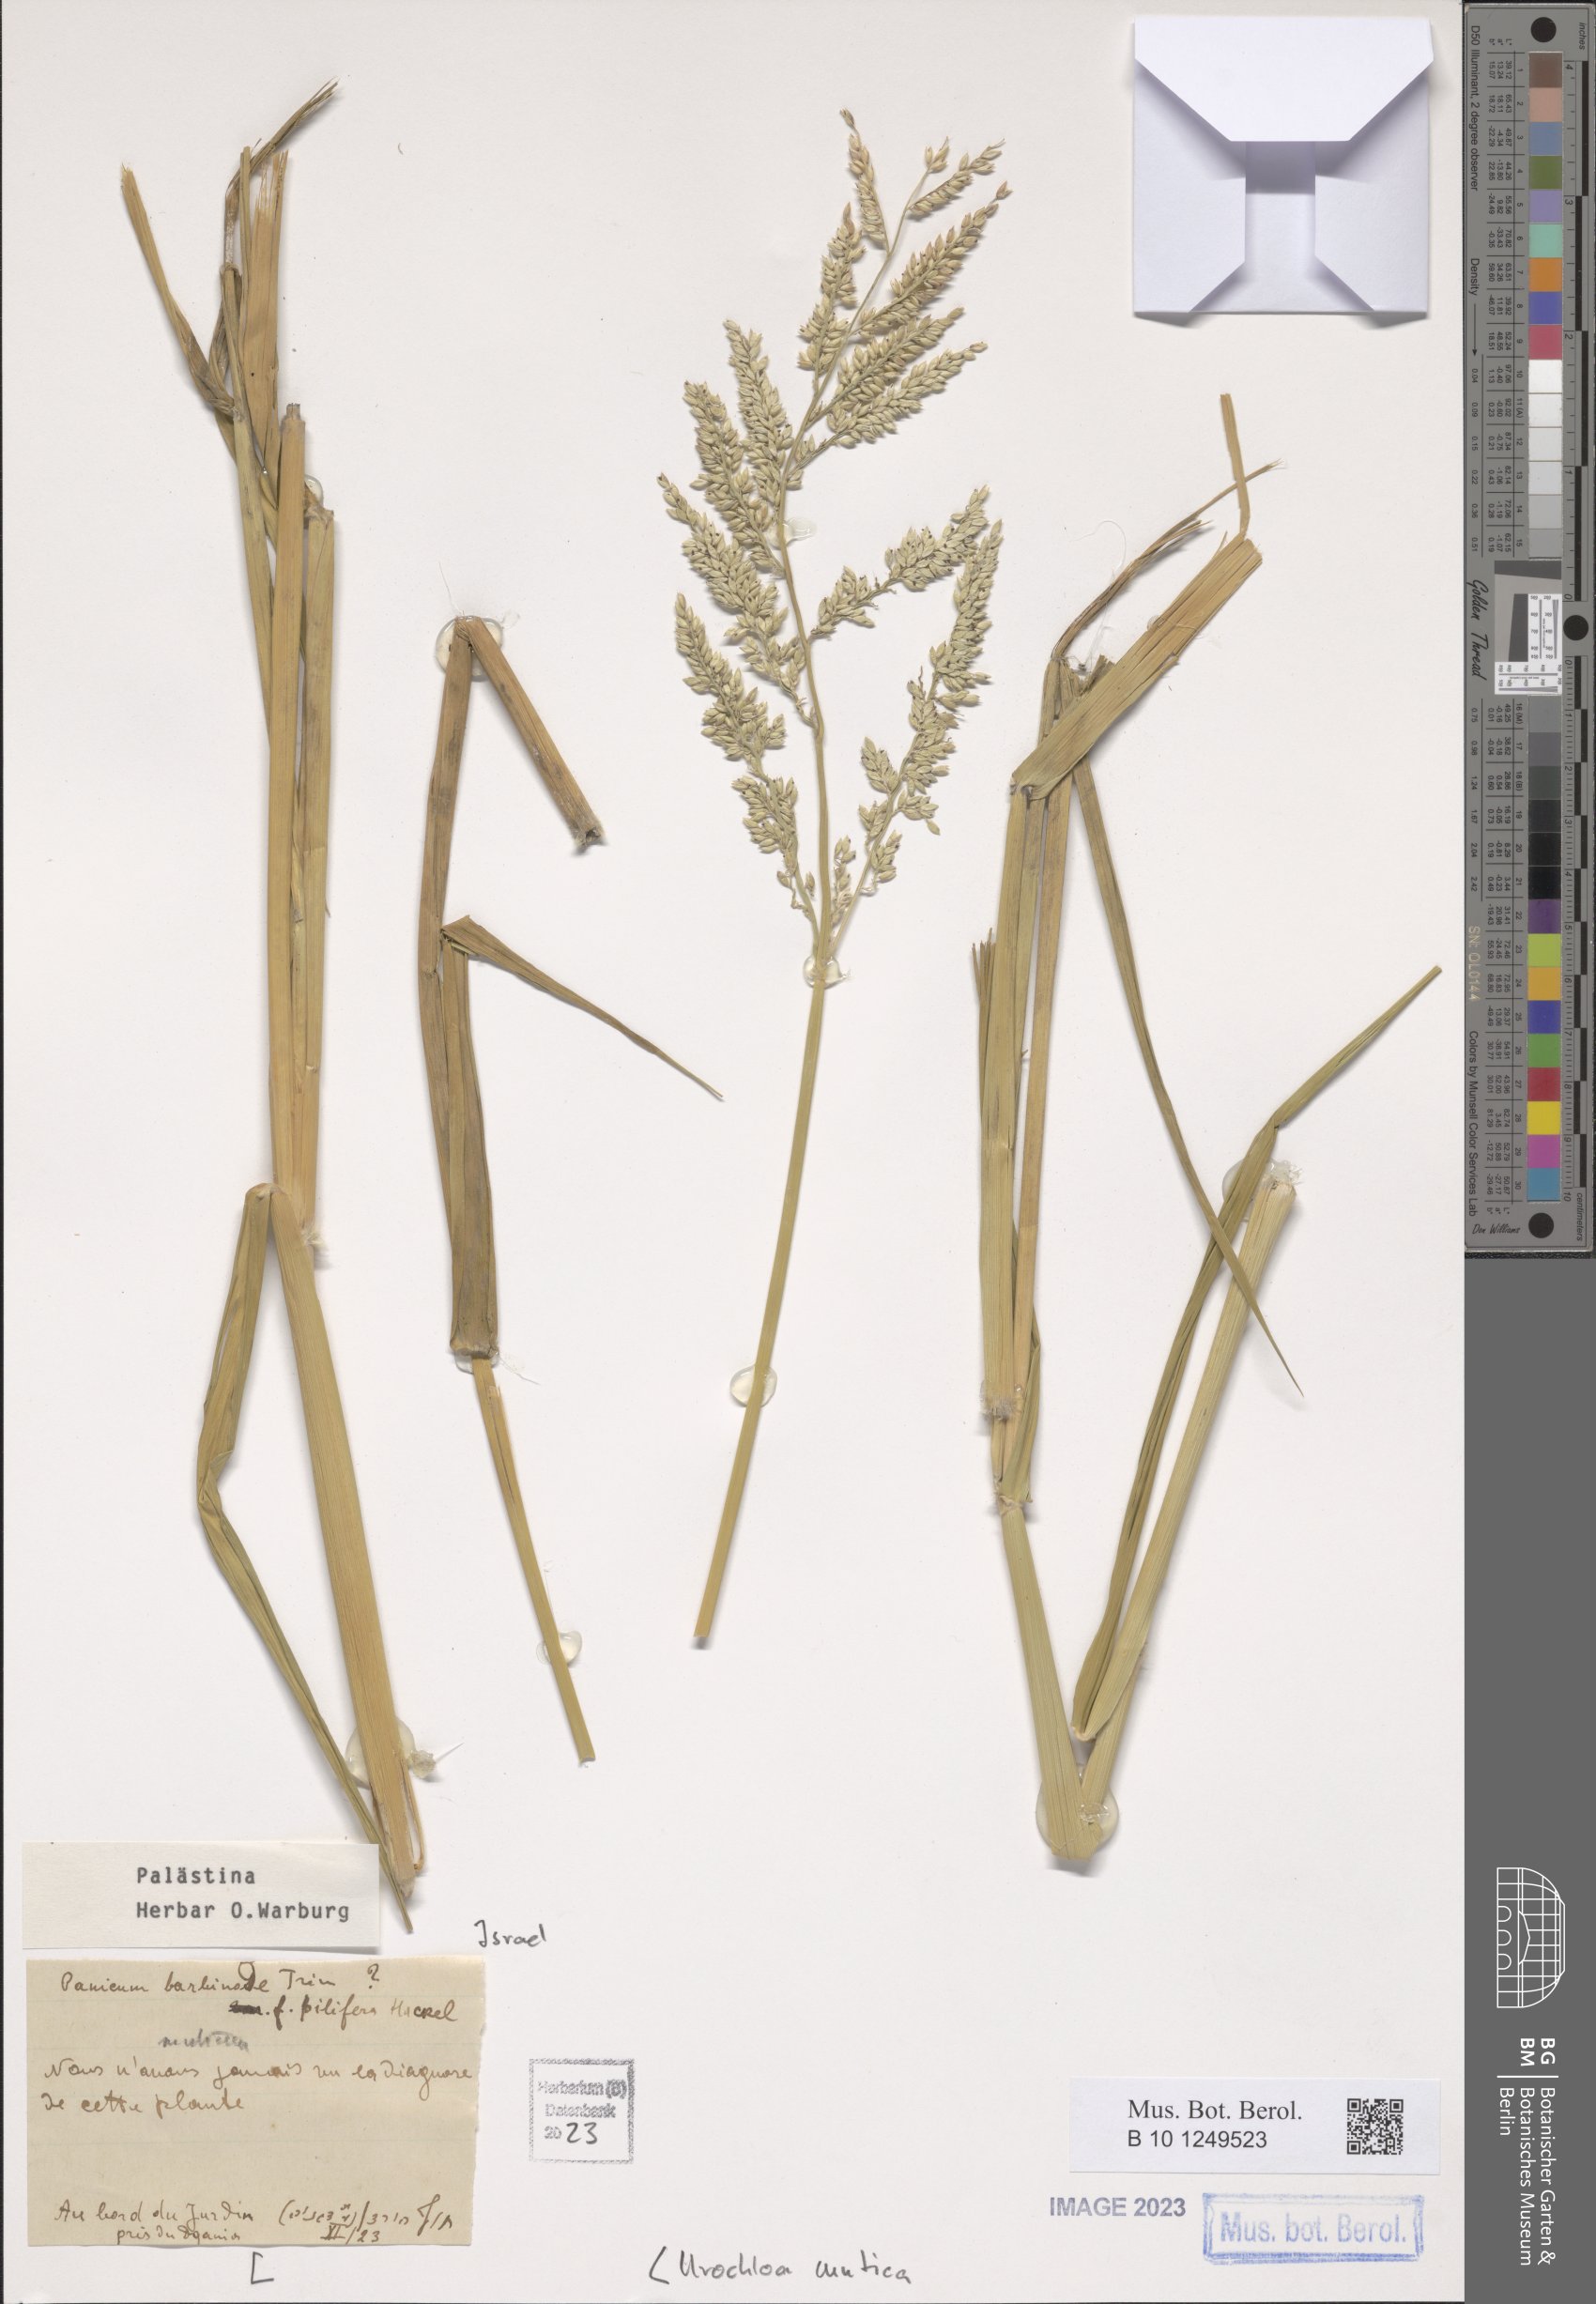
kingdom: Plantae
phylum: Tracheophyta
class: Liliopsida
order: Poales
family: Poaceae
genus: Urochloa
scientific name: Urochloa mutica
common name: Para grass
